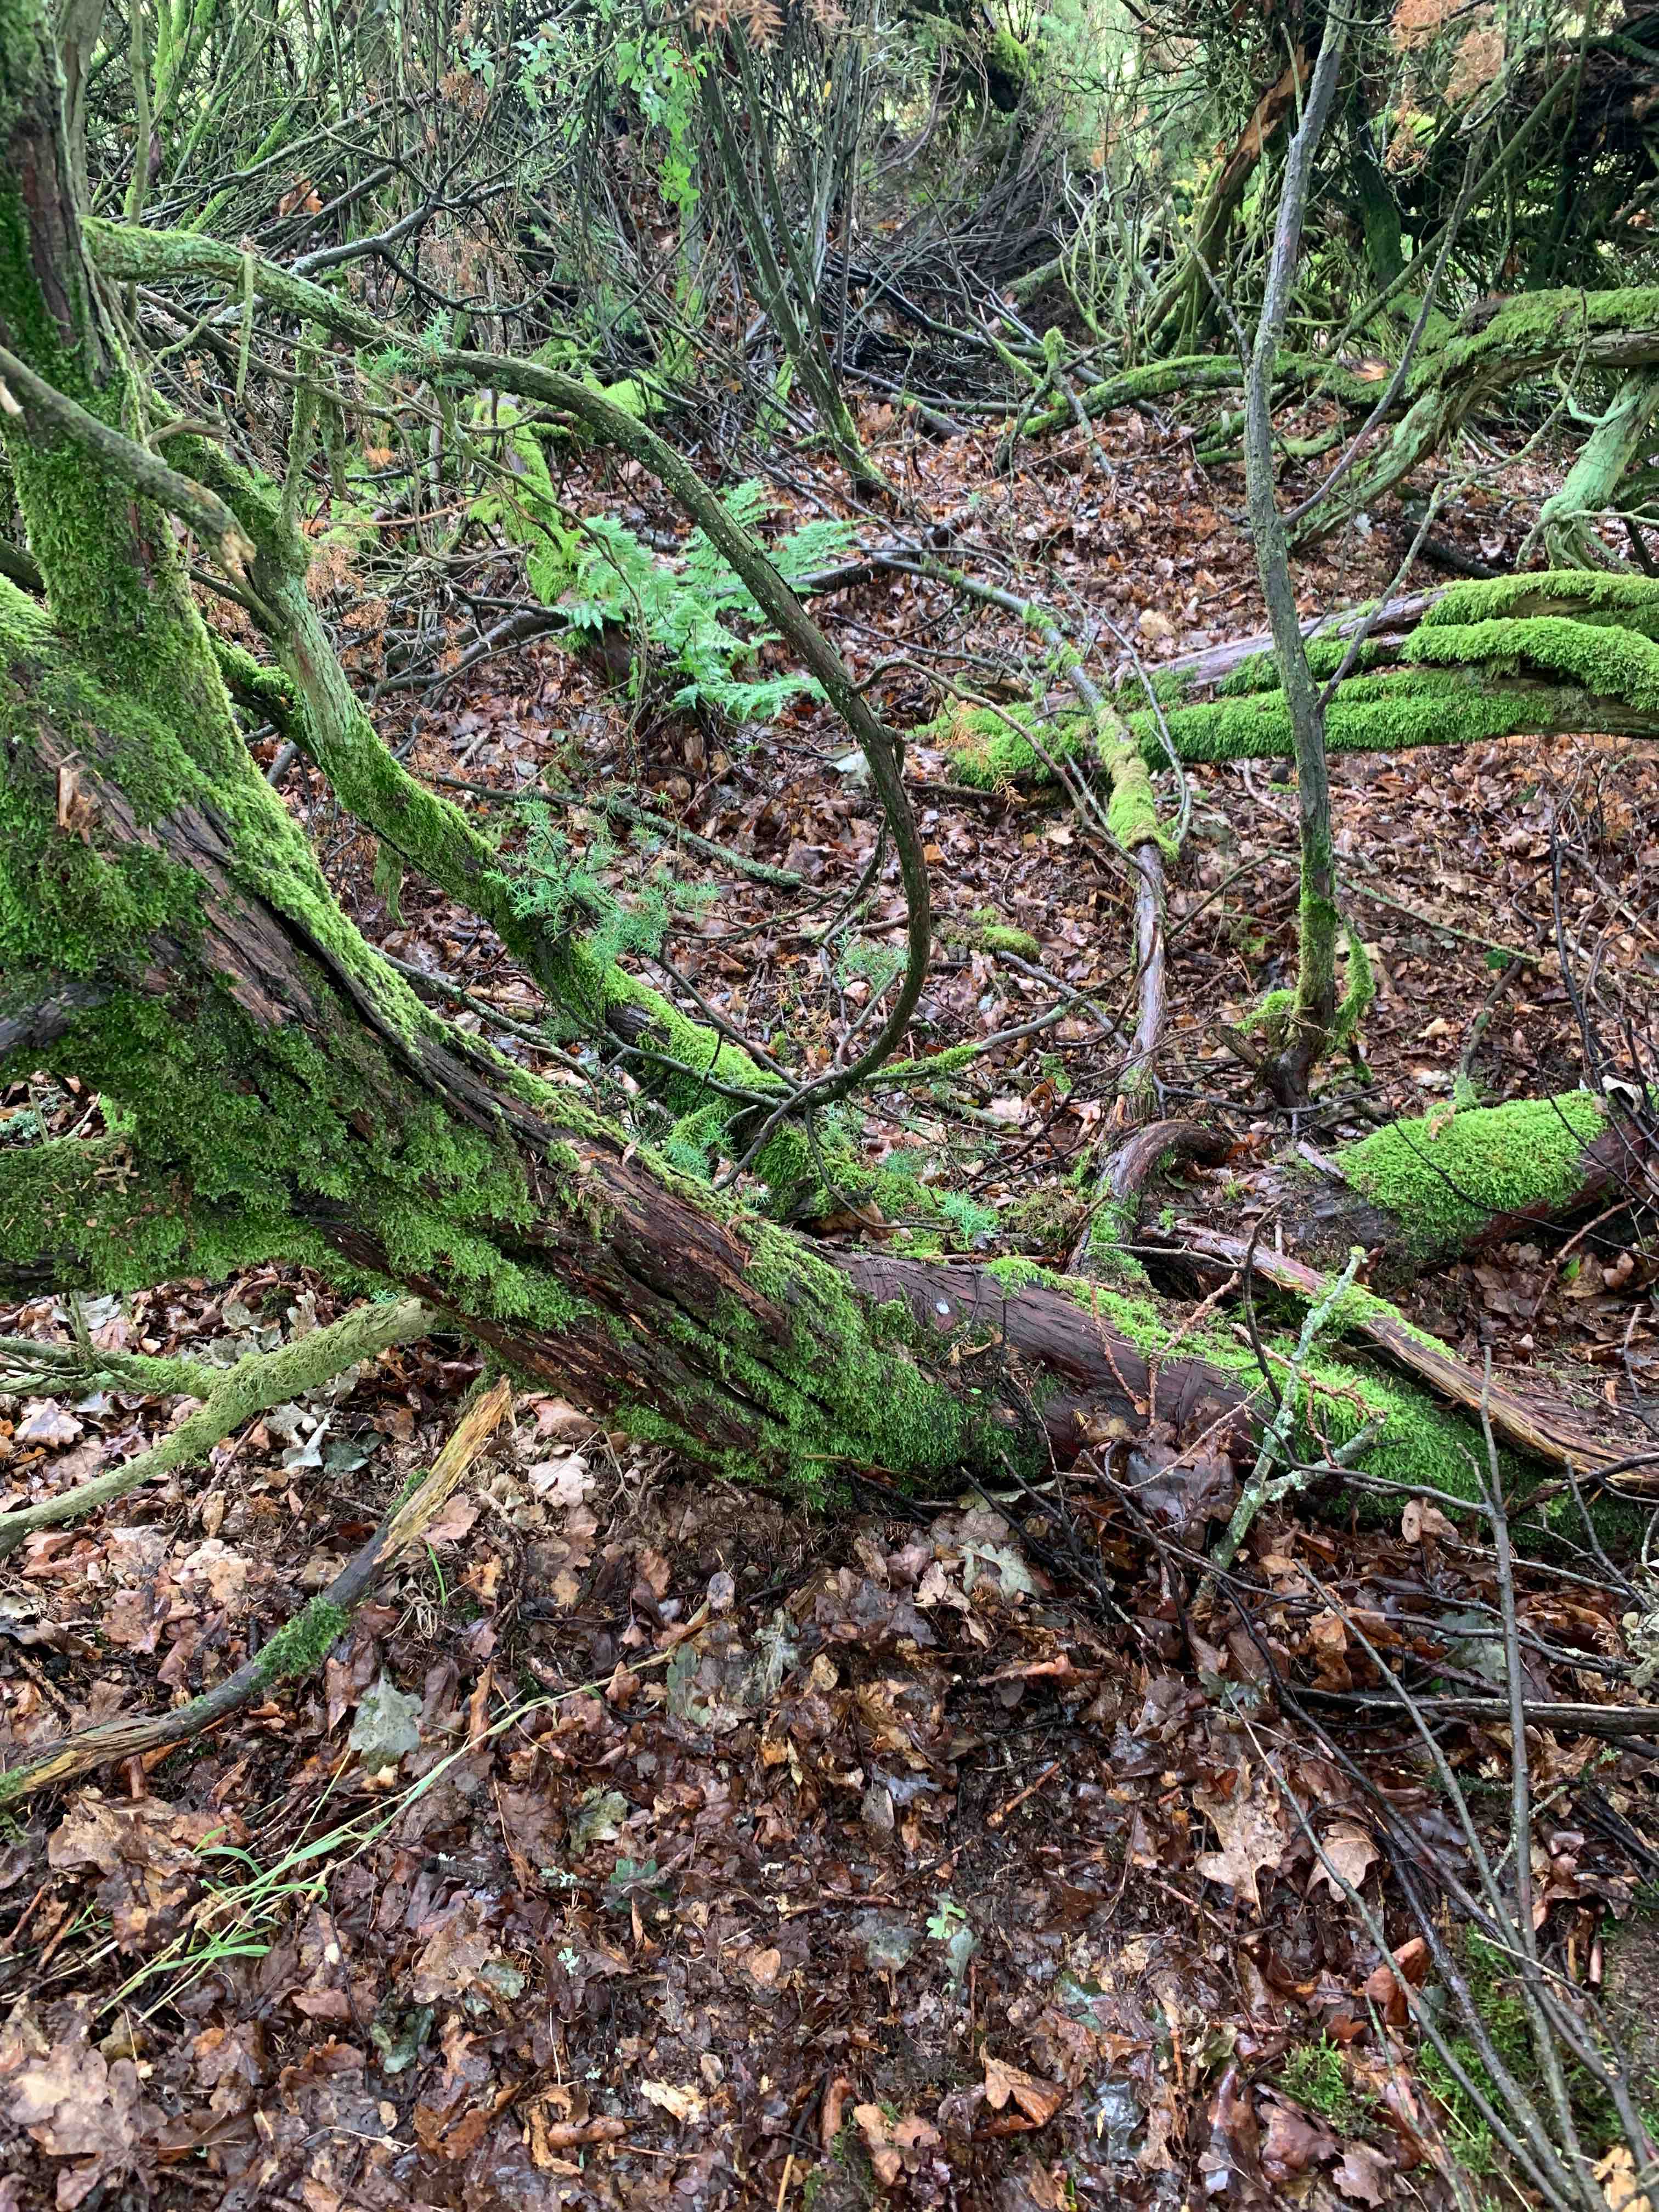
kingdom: Fungi
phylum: Basidiomycota
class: Agaricomycetes
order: Phallales
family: Phallaceae
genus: Phallus
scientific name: Phallus impudicus
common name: almindelig stinksvamp
